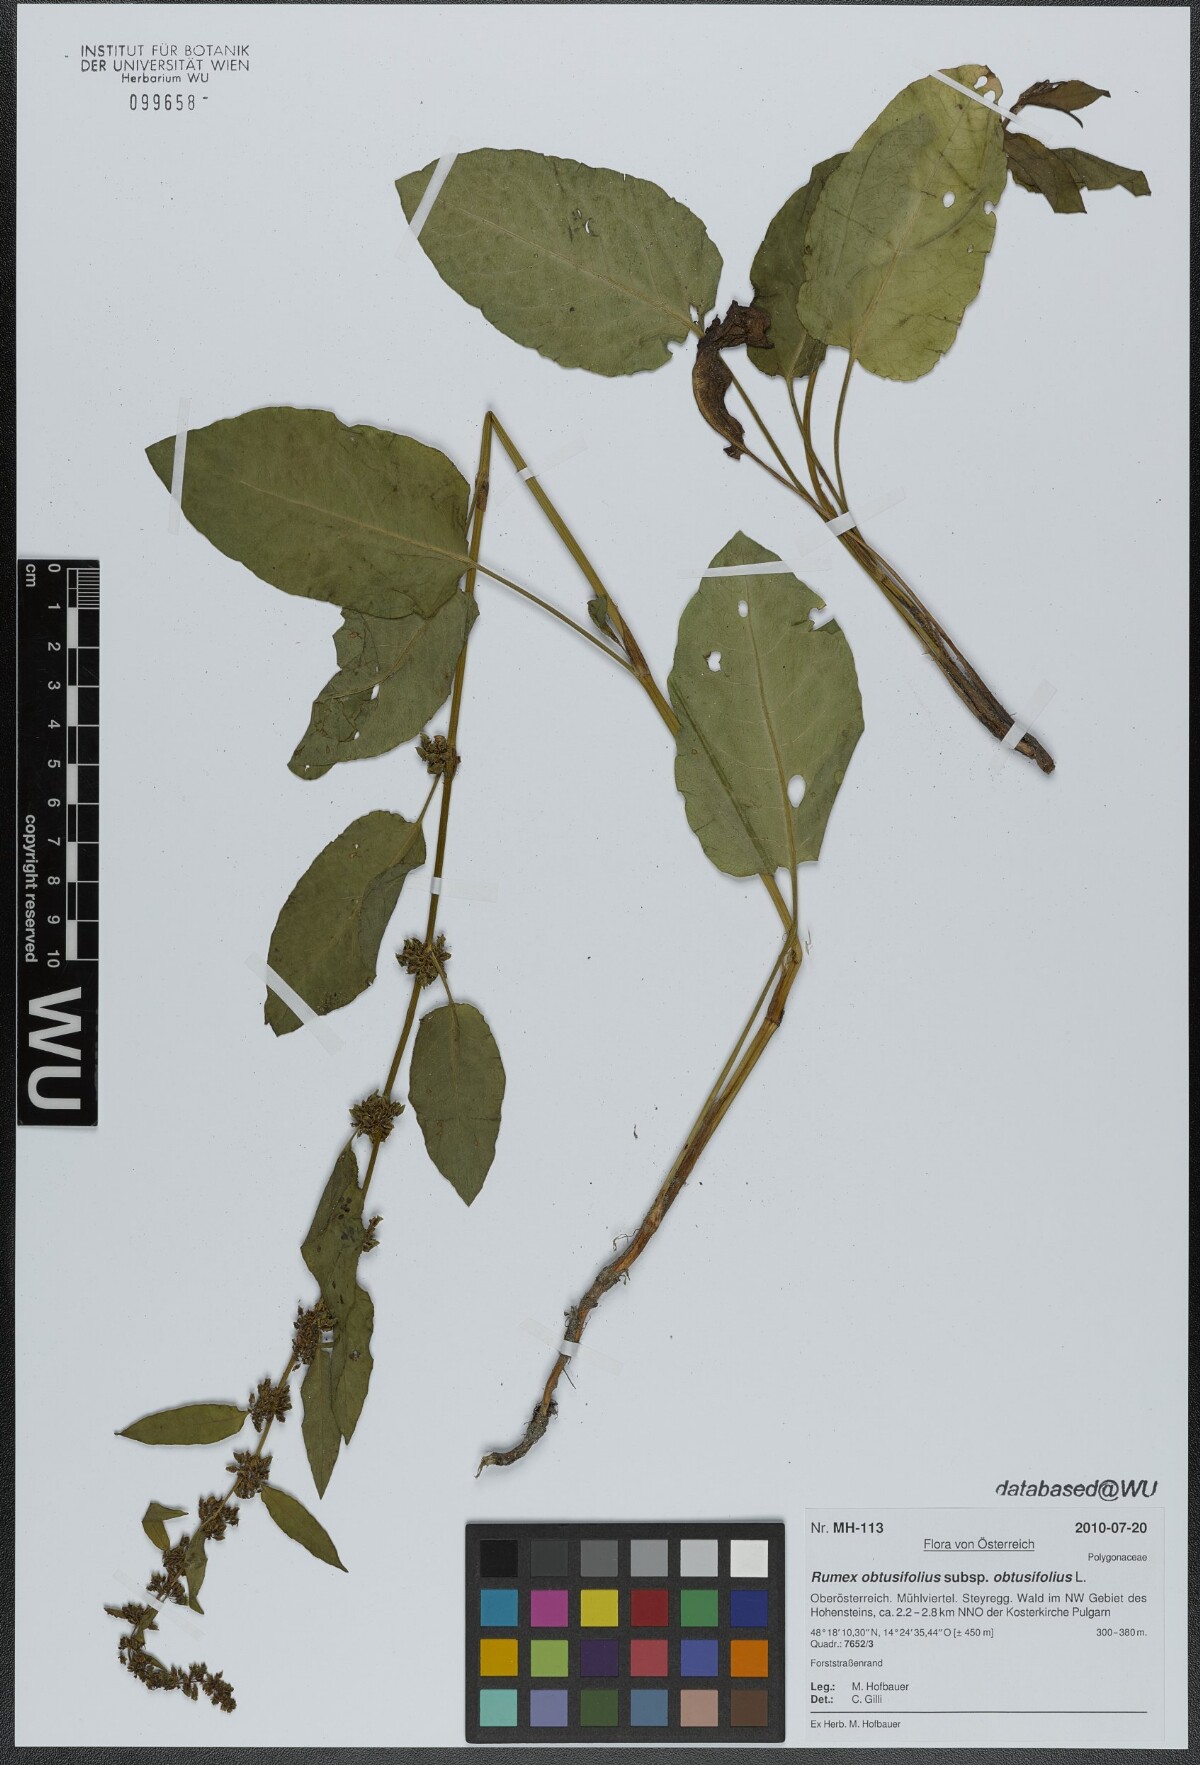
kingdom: Plantae
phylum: Tracheophyta
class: Magnoliopsida
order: Caryophyllales
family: Polygonaceae
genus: Rumex
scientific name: Rumex obtusifolius
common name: Bitter dock
